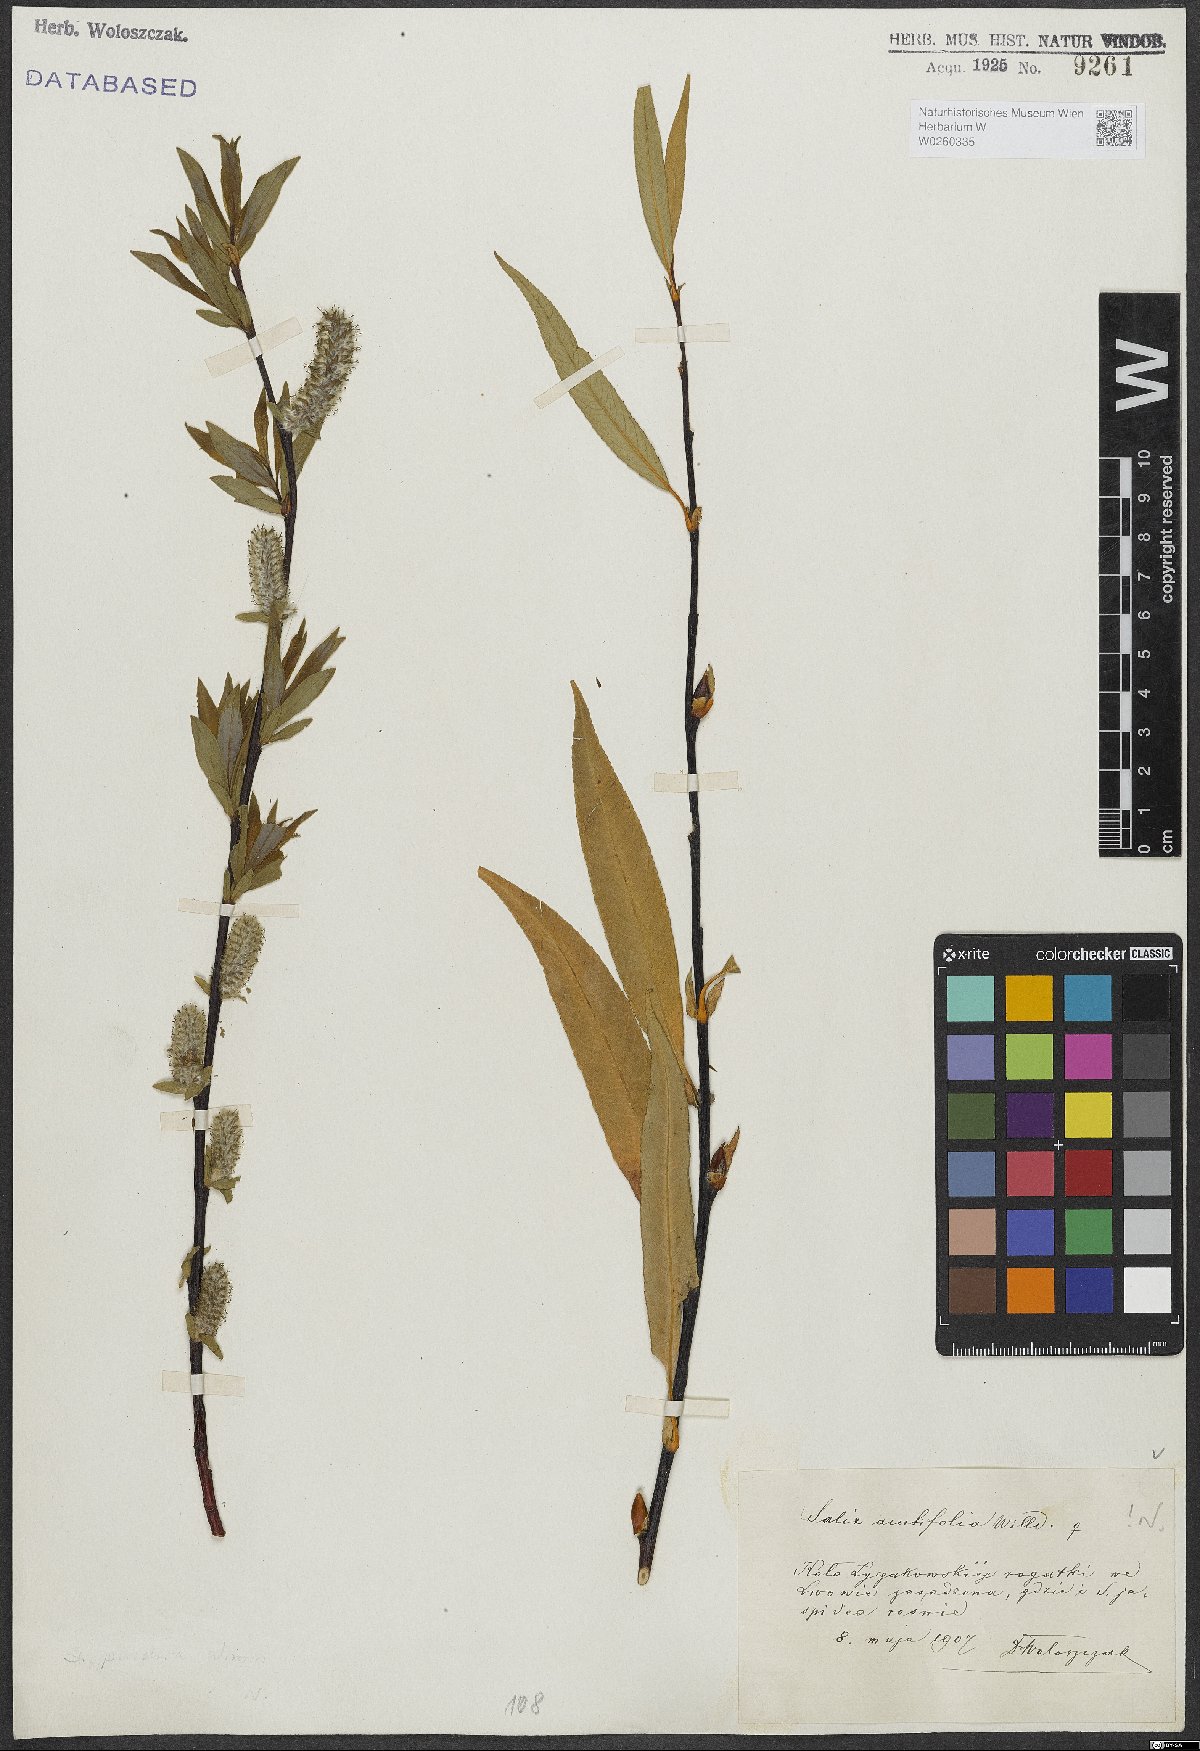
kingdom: Plantae
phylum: Tracheophyta
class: Magnoliopsida
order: Malpighiales
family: Salicaceae
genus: Salix
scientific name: Salix acutifolia
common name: Siberian violet-willow
